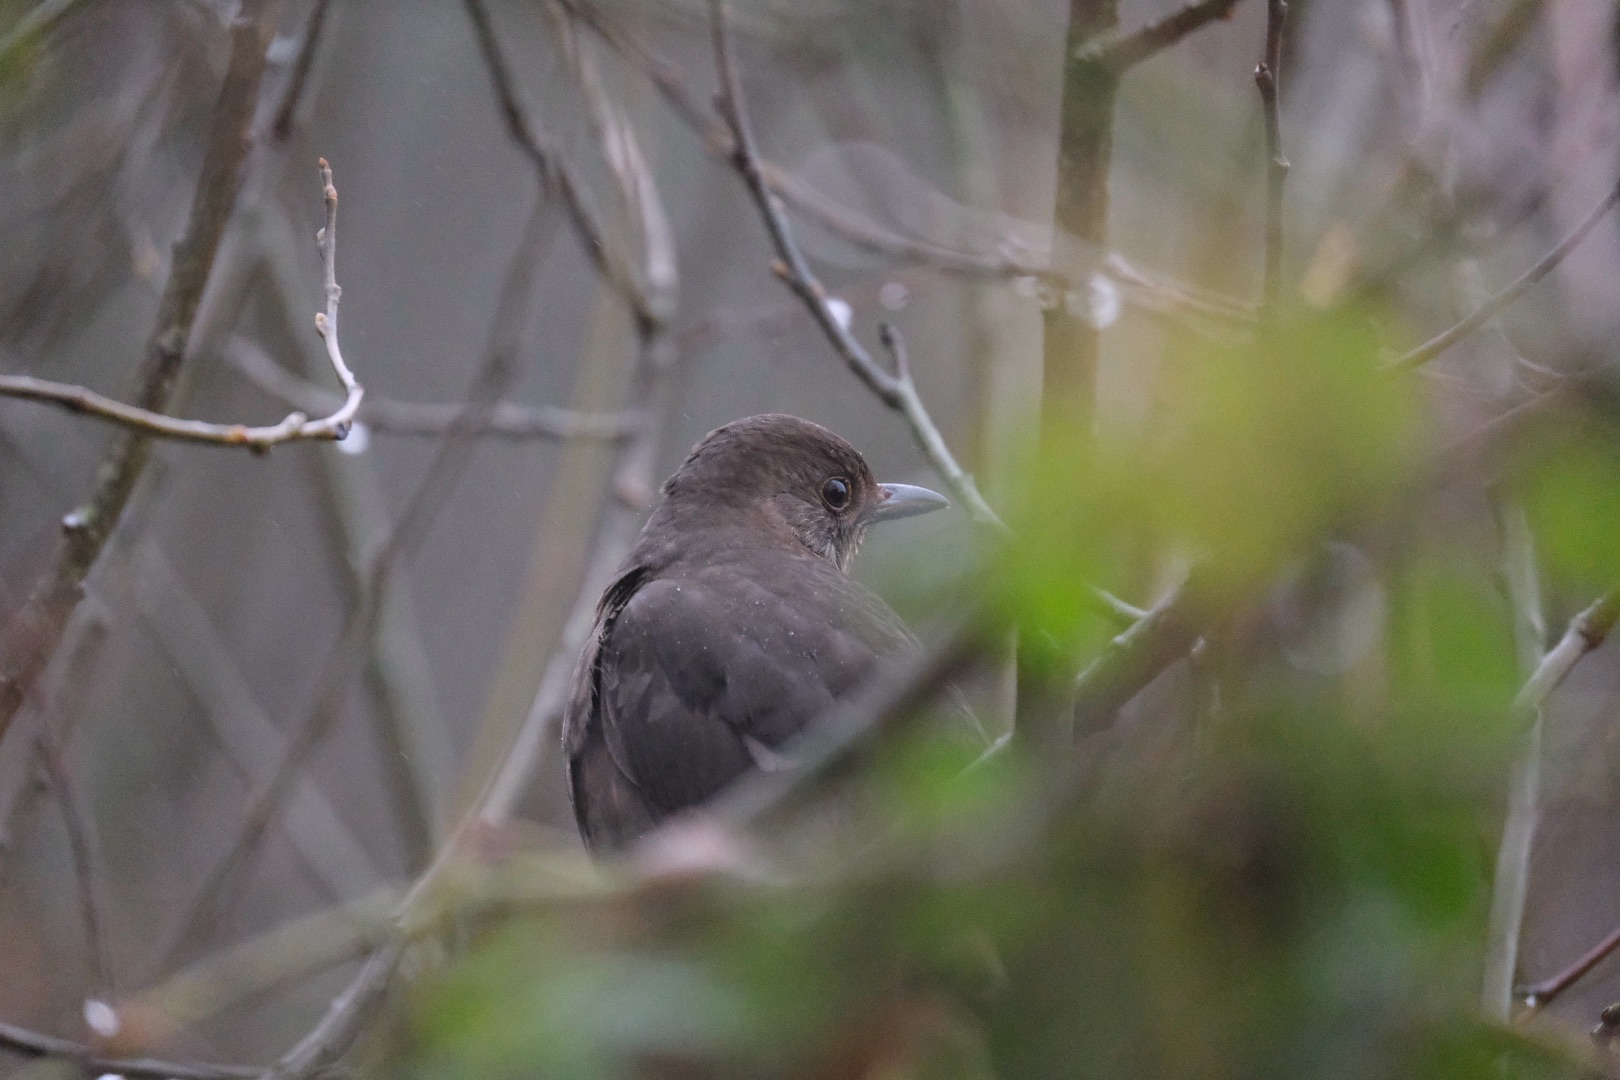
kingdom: Animalia
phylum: Chordata
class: Aves
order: Passeriformes
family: Turdidae
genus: Turdus
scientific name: Turdus merula
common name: Solsort
